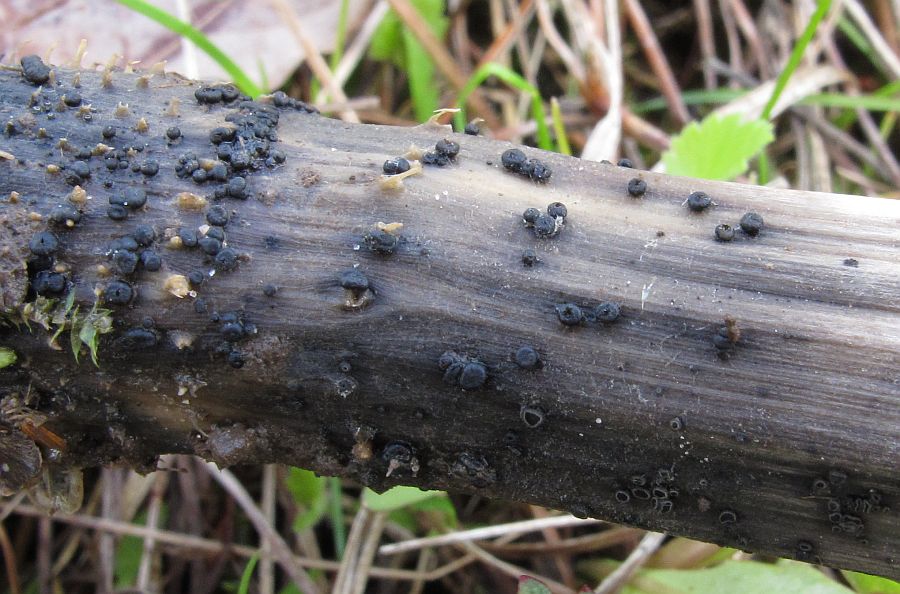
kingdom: Fungi
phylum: Ascomycota
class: Leotiomycetes
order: Helotiales
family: Heterosphaeriaceae
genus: Heterosphaeria
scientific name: Heterosphaeria
